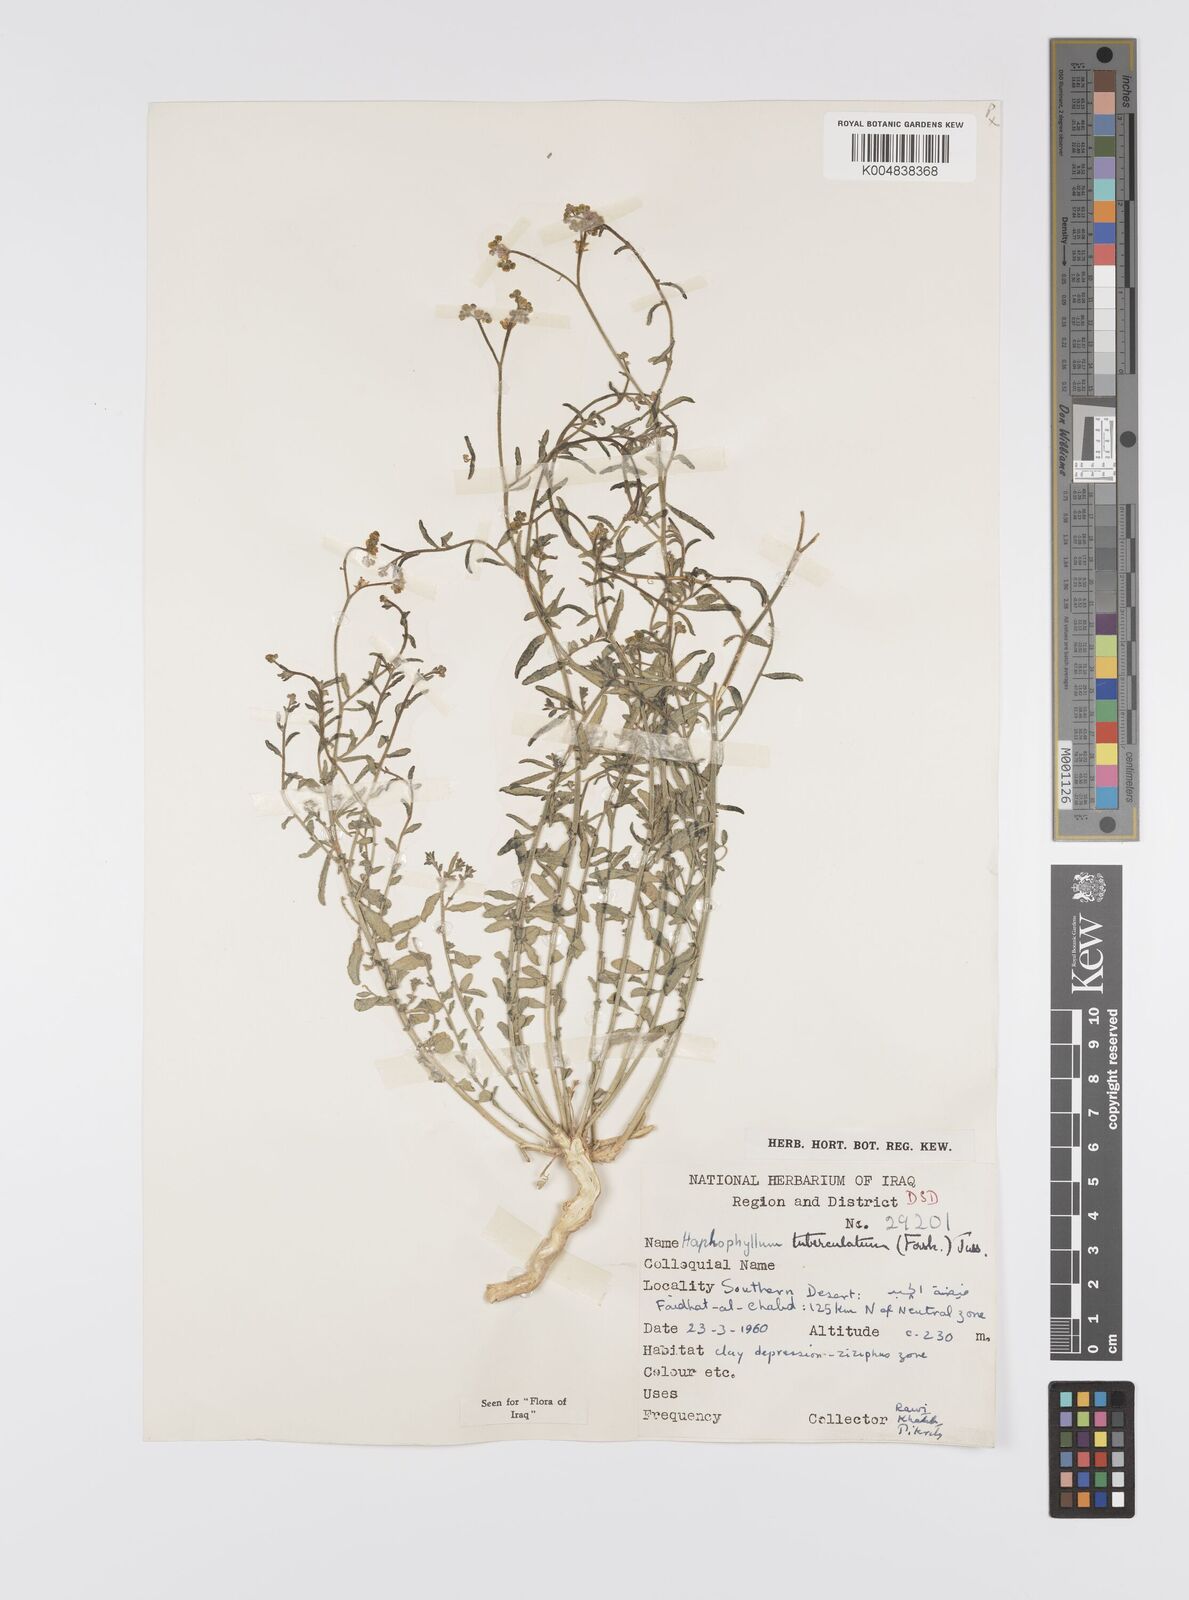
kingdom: Plantae
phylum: Tracheophyta
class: Magnoliopsida
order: Sapindales
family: Rutaceae
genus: Haplophyllum
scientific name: Haplophyllum tuberculatum
